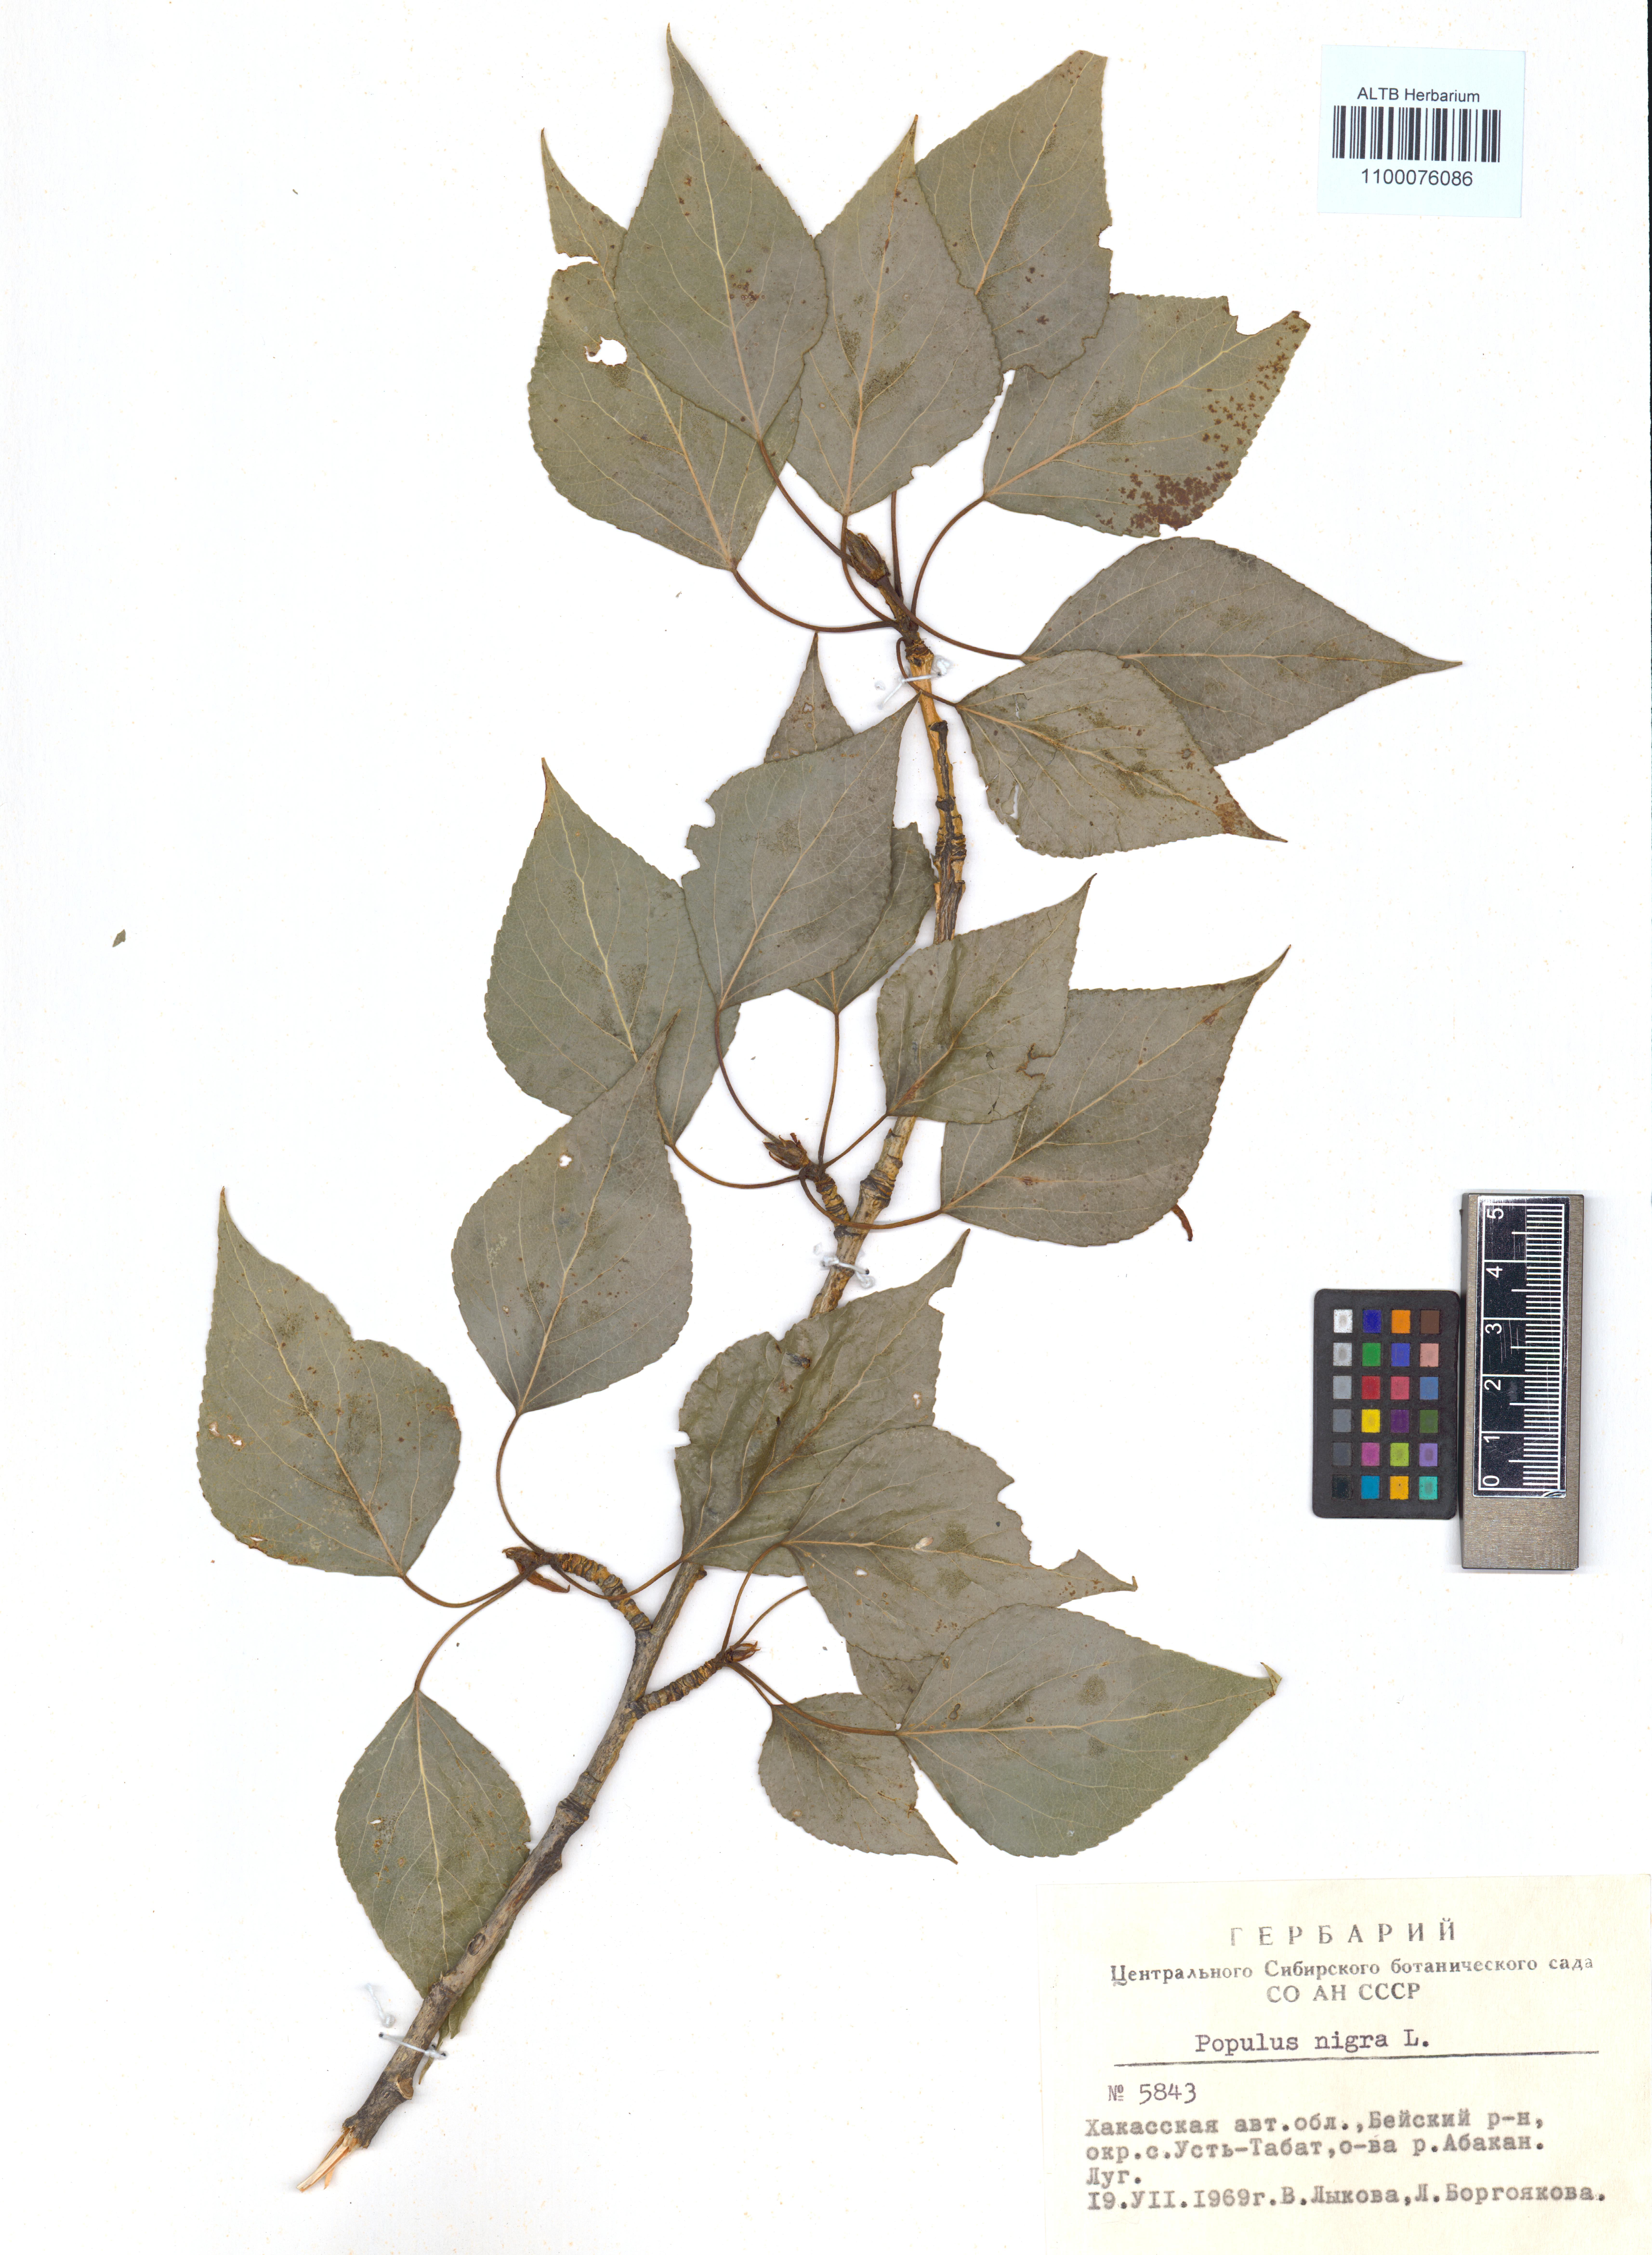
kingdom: Plantae
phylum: Tracheophyta
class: Magnoliopsida
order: Malpighiales
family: Salicaceae
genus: Populus
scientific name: Populus nigra
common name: Black poplar
